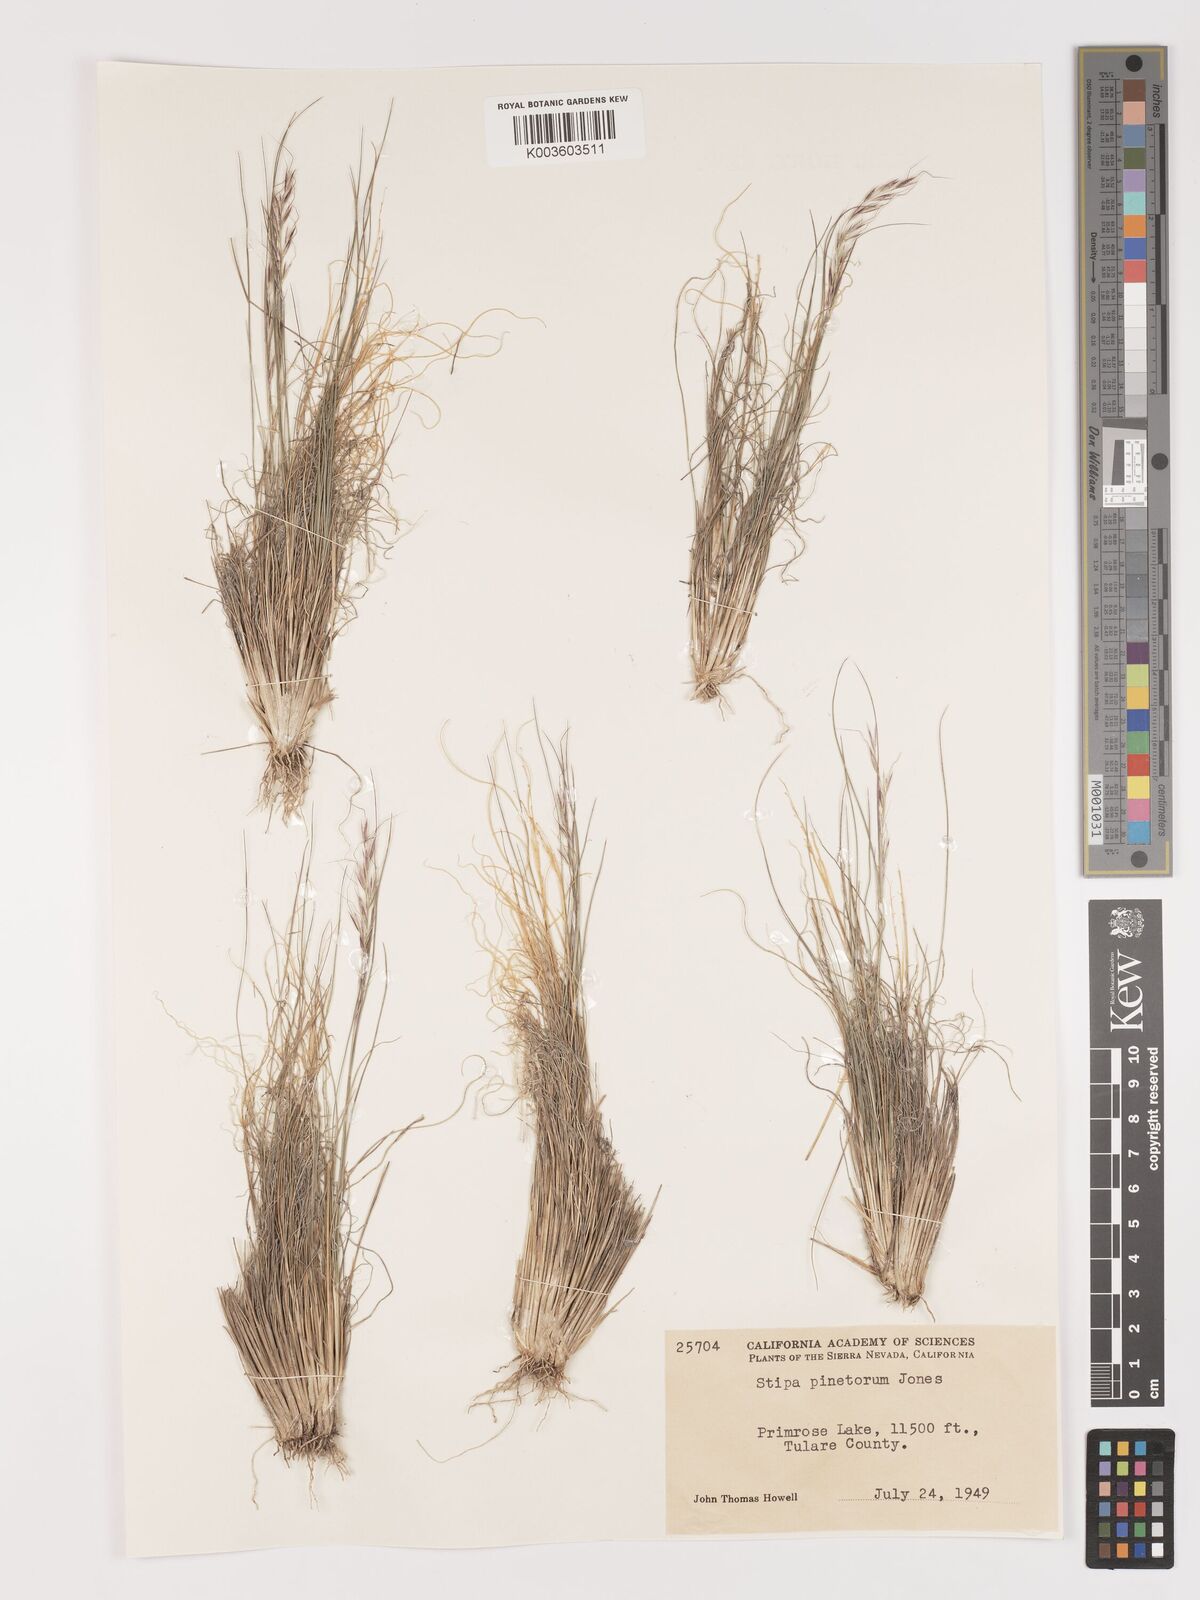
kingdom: Plantae
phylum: Tracheophyta
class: Liliopsida
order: Poales
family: Poaceae
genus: Eriocoma
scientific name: Eriocoma pinetorum
